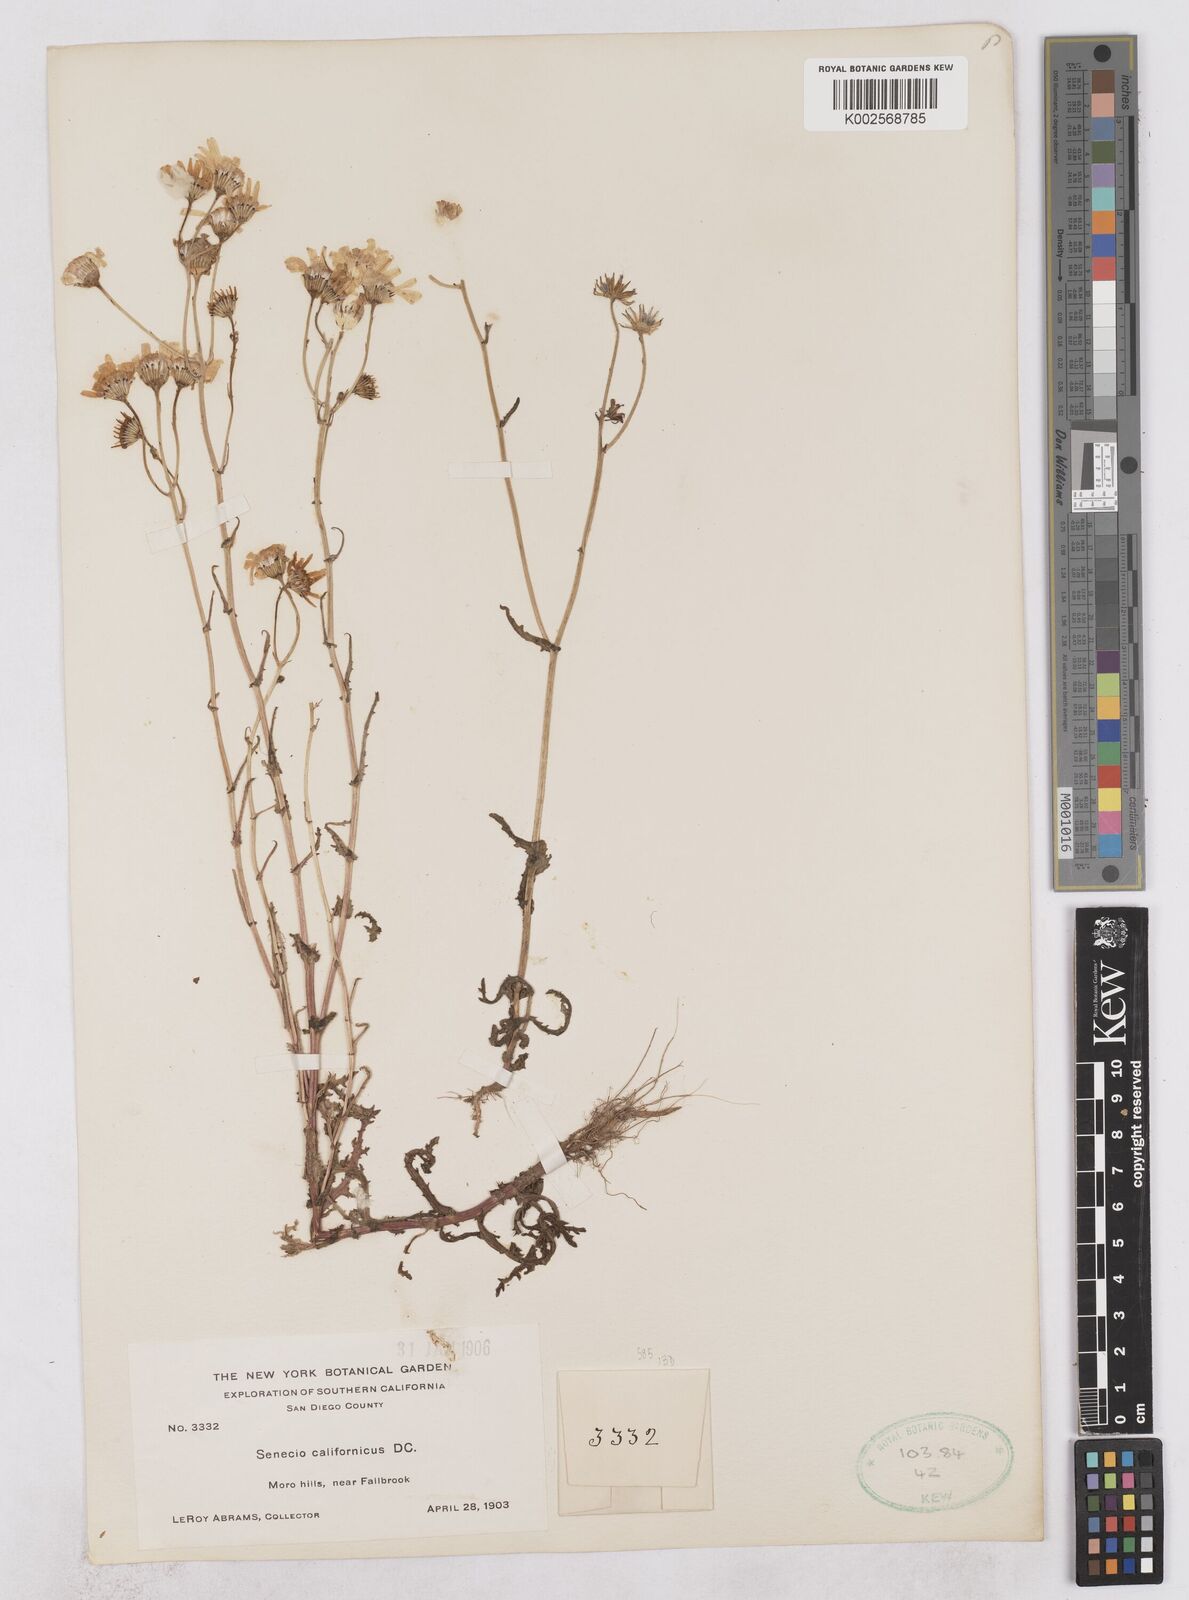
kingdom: Plantae
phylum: Tracheophyta
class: Magnoliopsida
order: Asterales
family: Asteraceae
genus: Senecio
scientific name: Senecio californicus
